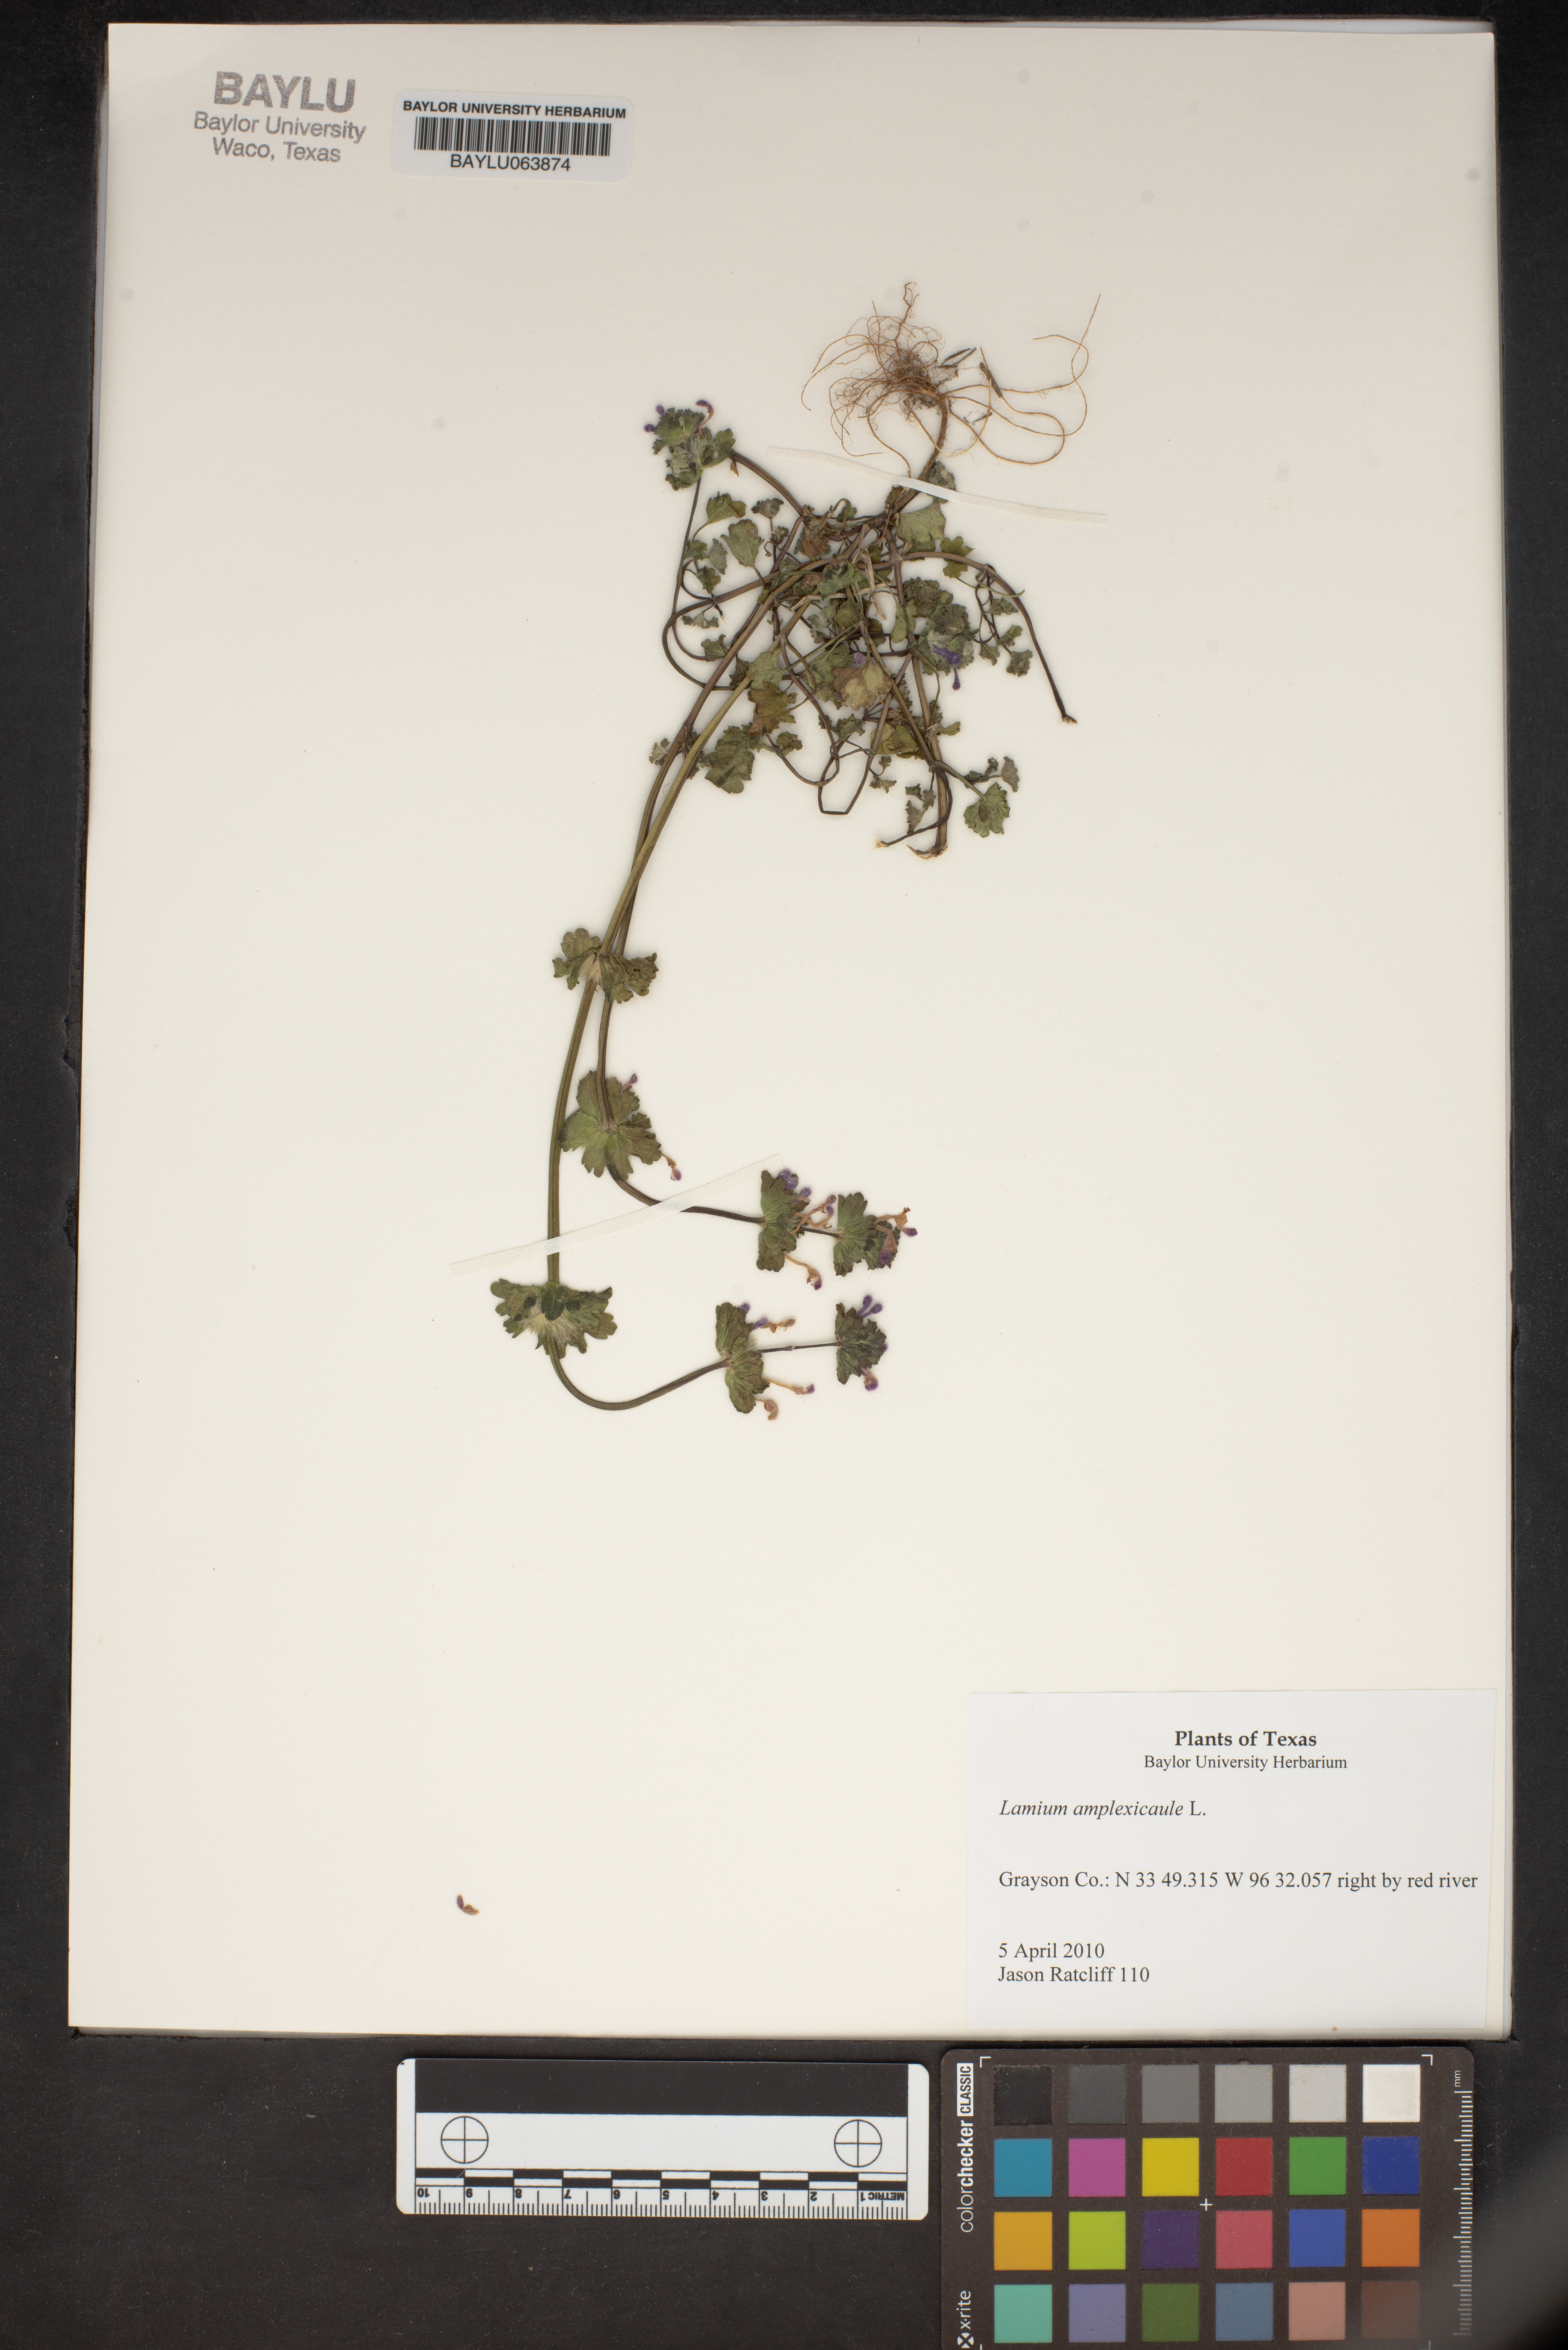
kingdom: Plantae
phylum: Tracheophyta
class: Magnoliopsida
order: Lamiales
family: Lamiaceae
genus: Lamium
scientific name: Lamium amplexicaule
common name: Henbit dead-nettle
